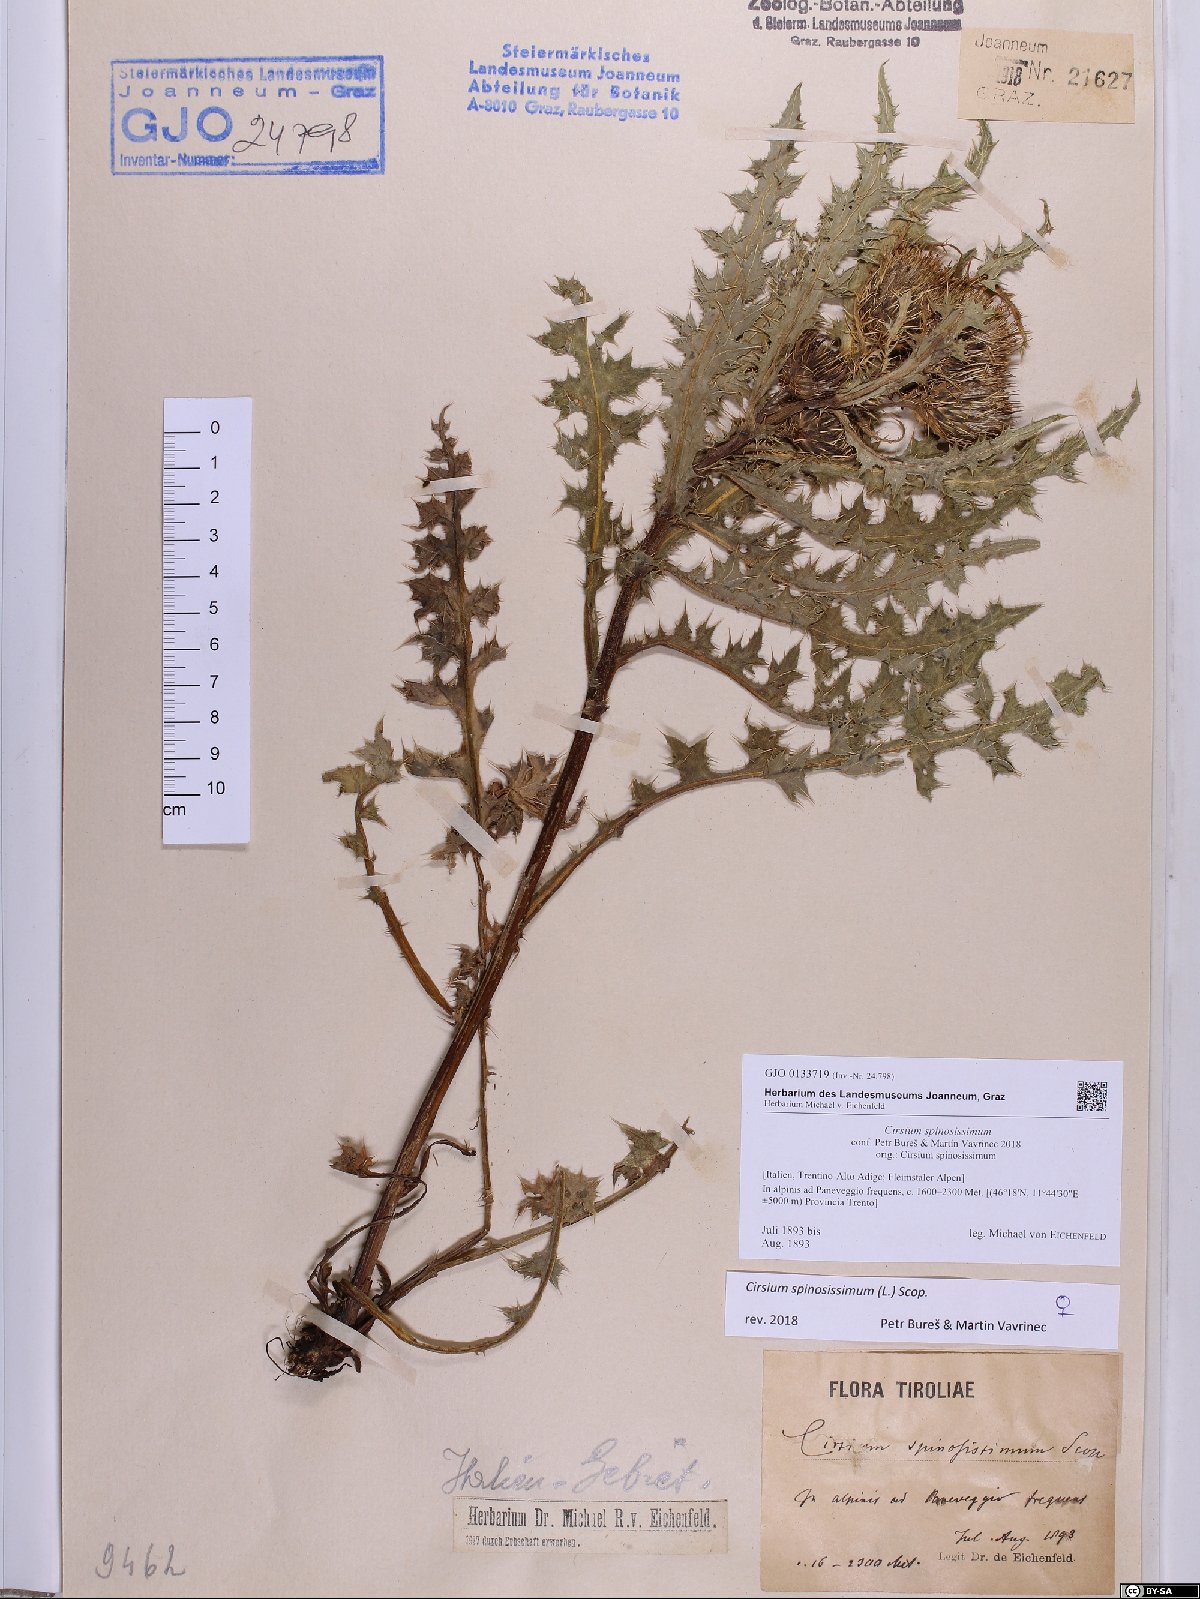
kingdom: Plantae
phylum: Tracheophyta
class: Magnoliopsida
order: Asterales
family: Asteraceae
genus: Cirsium
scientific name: Cirsium spinosissimum
